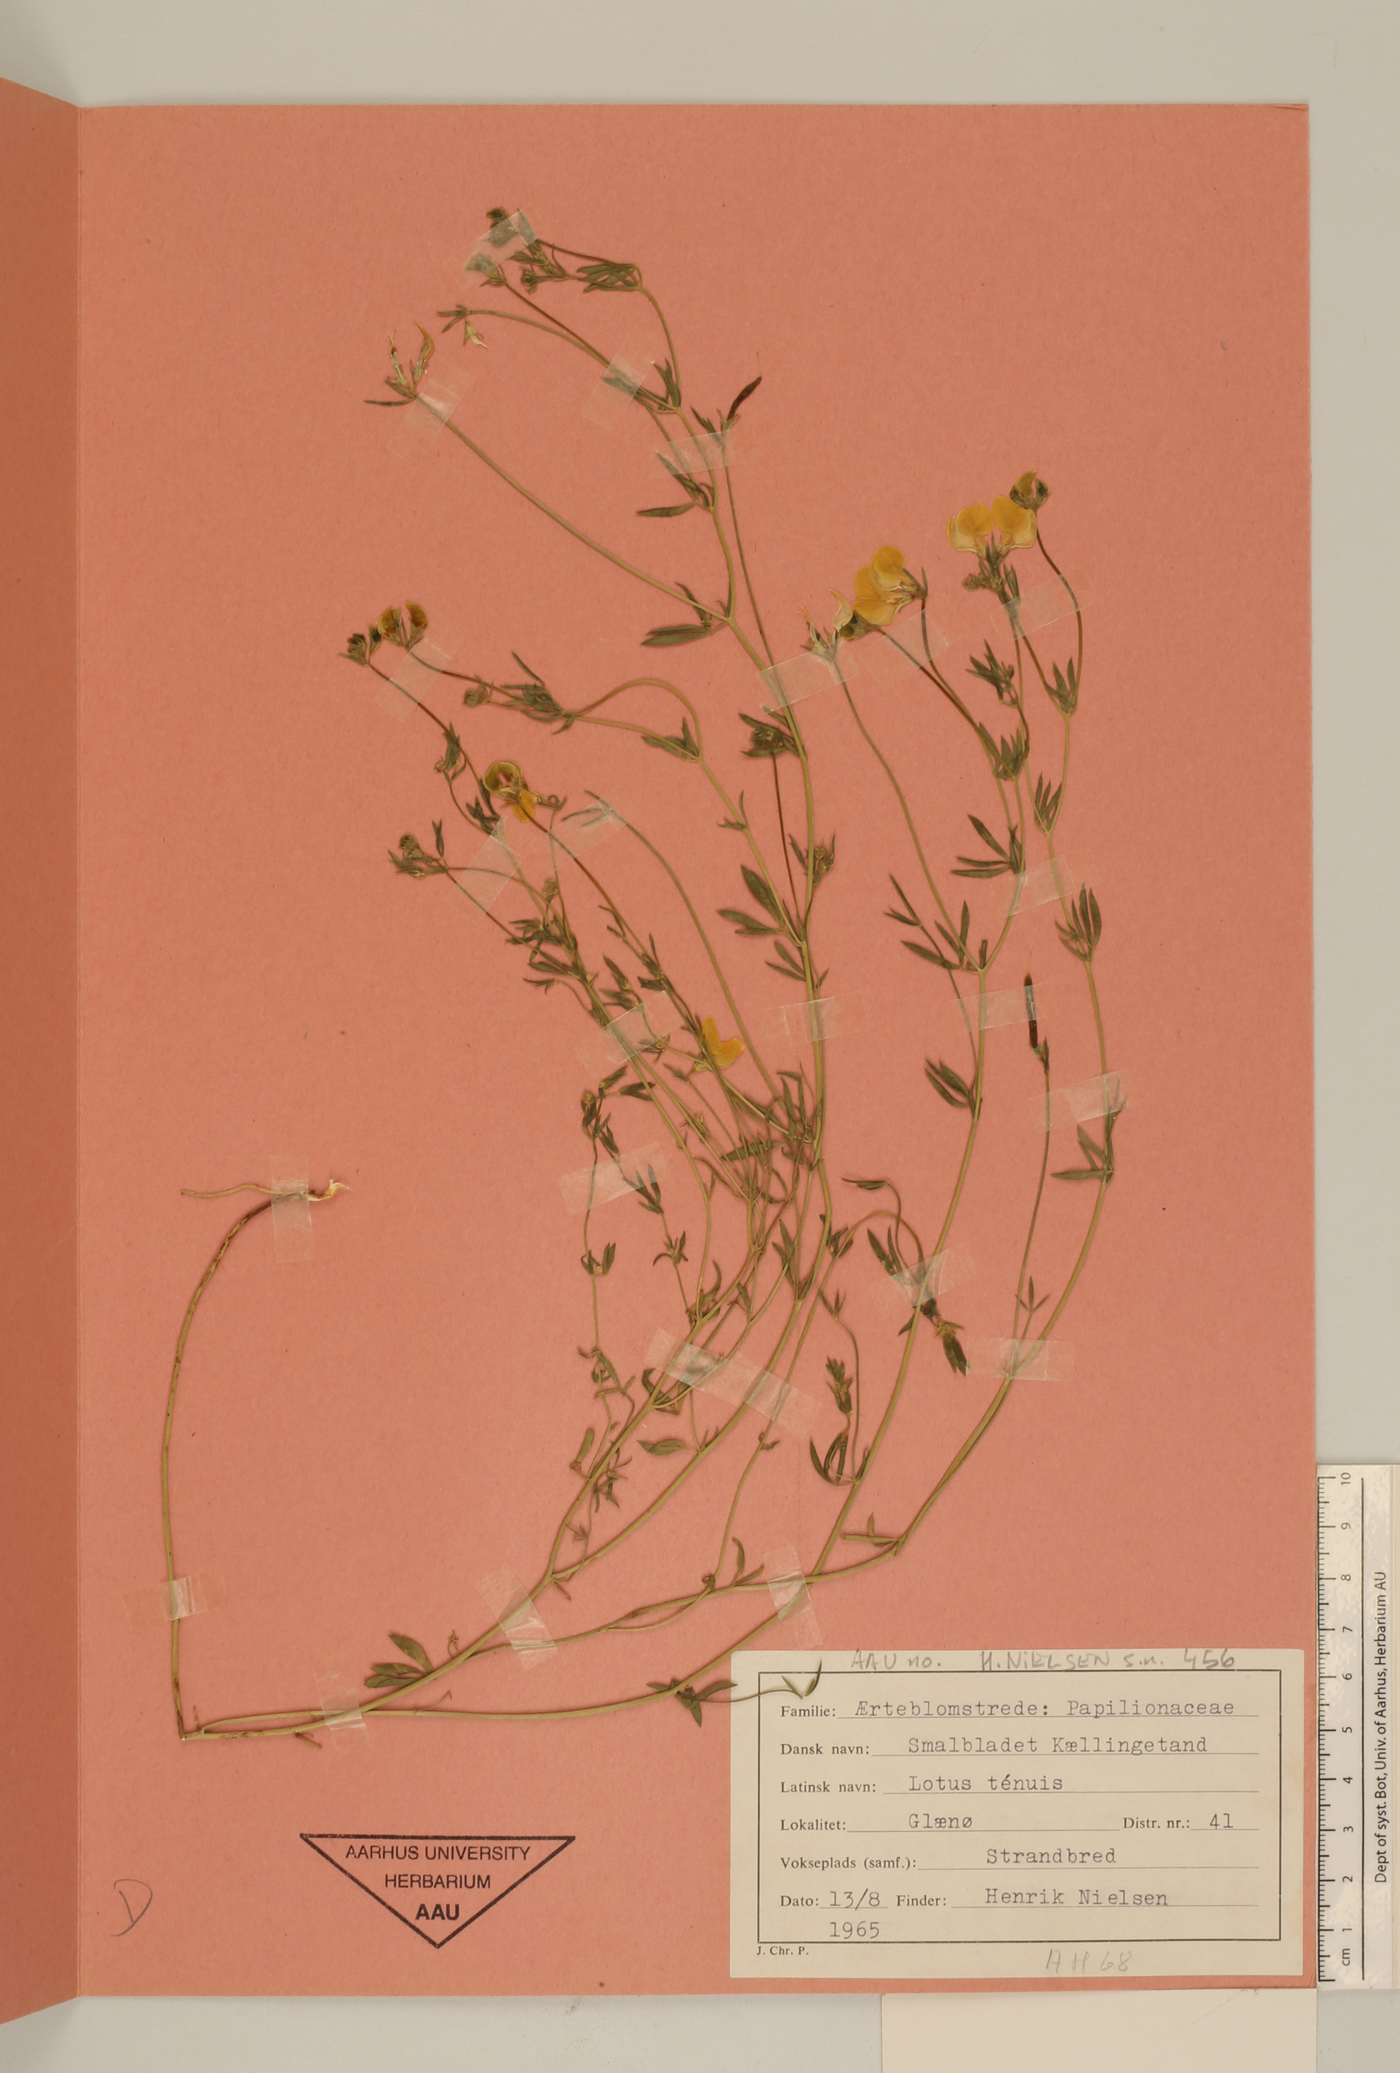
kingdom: Plantae
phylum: Tracheophyta
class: Magnoliopsida
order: Fabales
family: Fabaceae
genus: Lotus
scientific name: Lotus tenuis
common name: Narrow-leaved bird's-foot-trefoil
